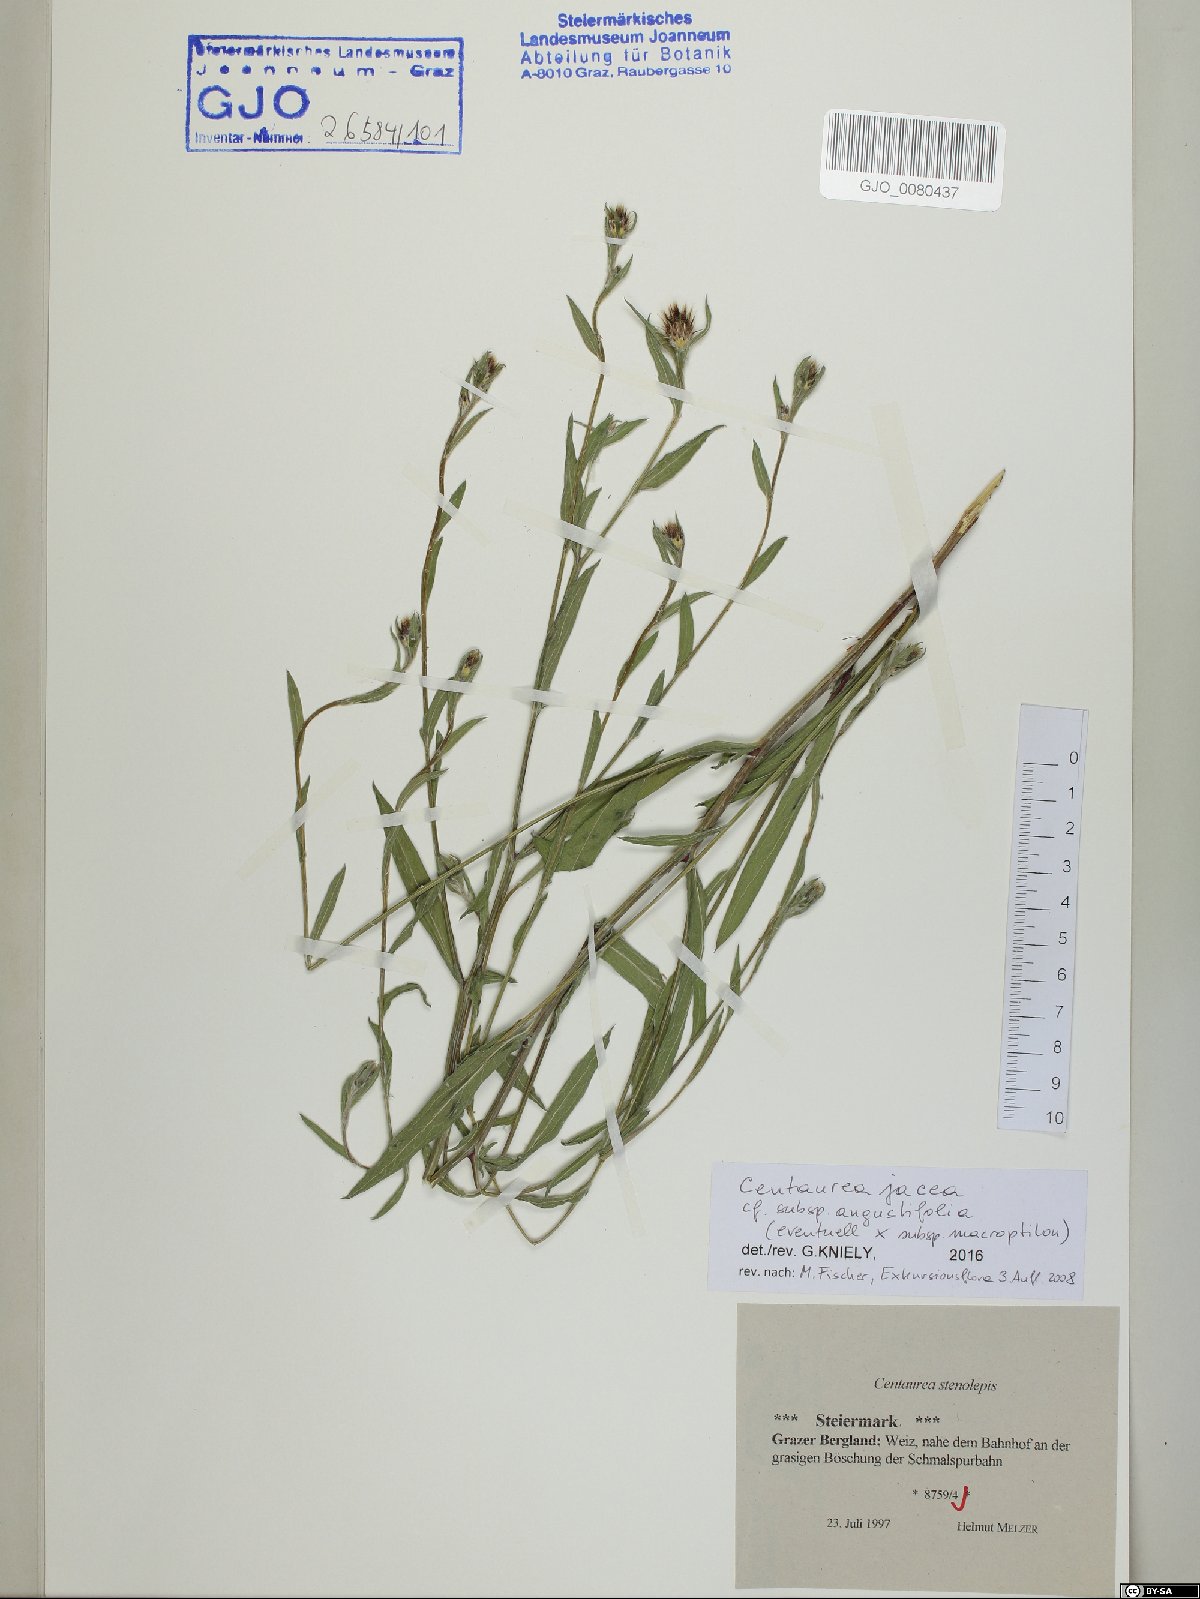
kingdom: Plantae
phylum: Tracheophyta
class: Magnoliopsida
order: Asterales
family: Asteraceae
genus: Centaurea
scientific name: Centaurea pannonica
